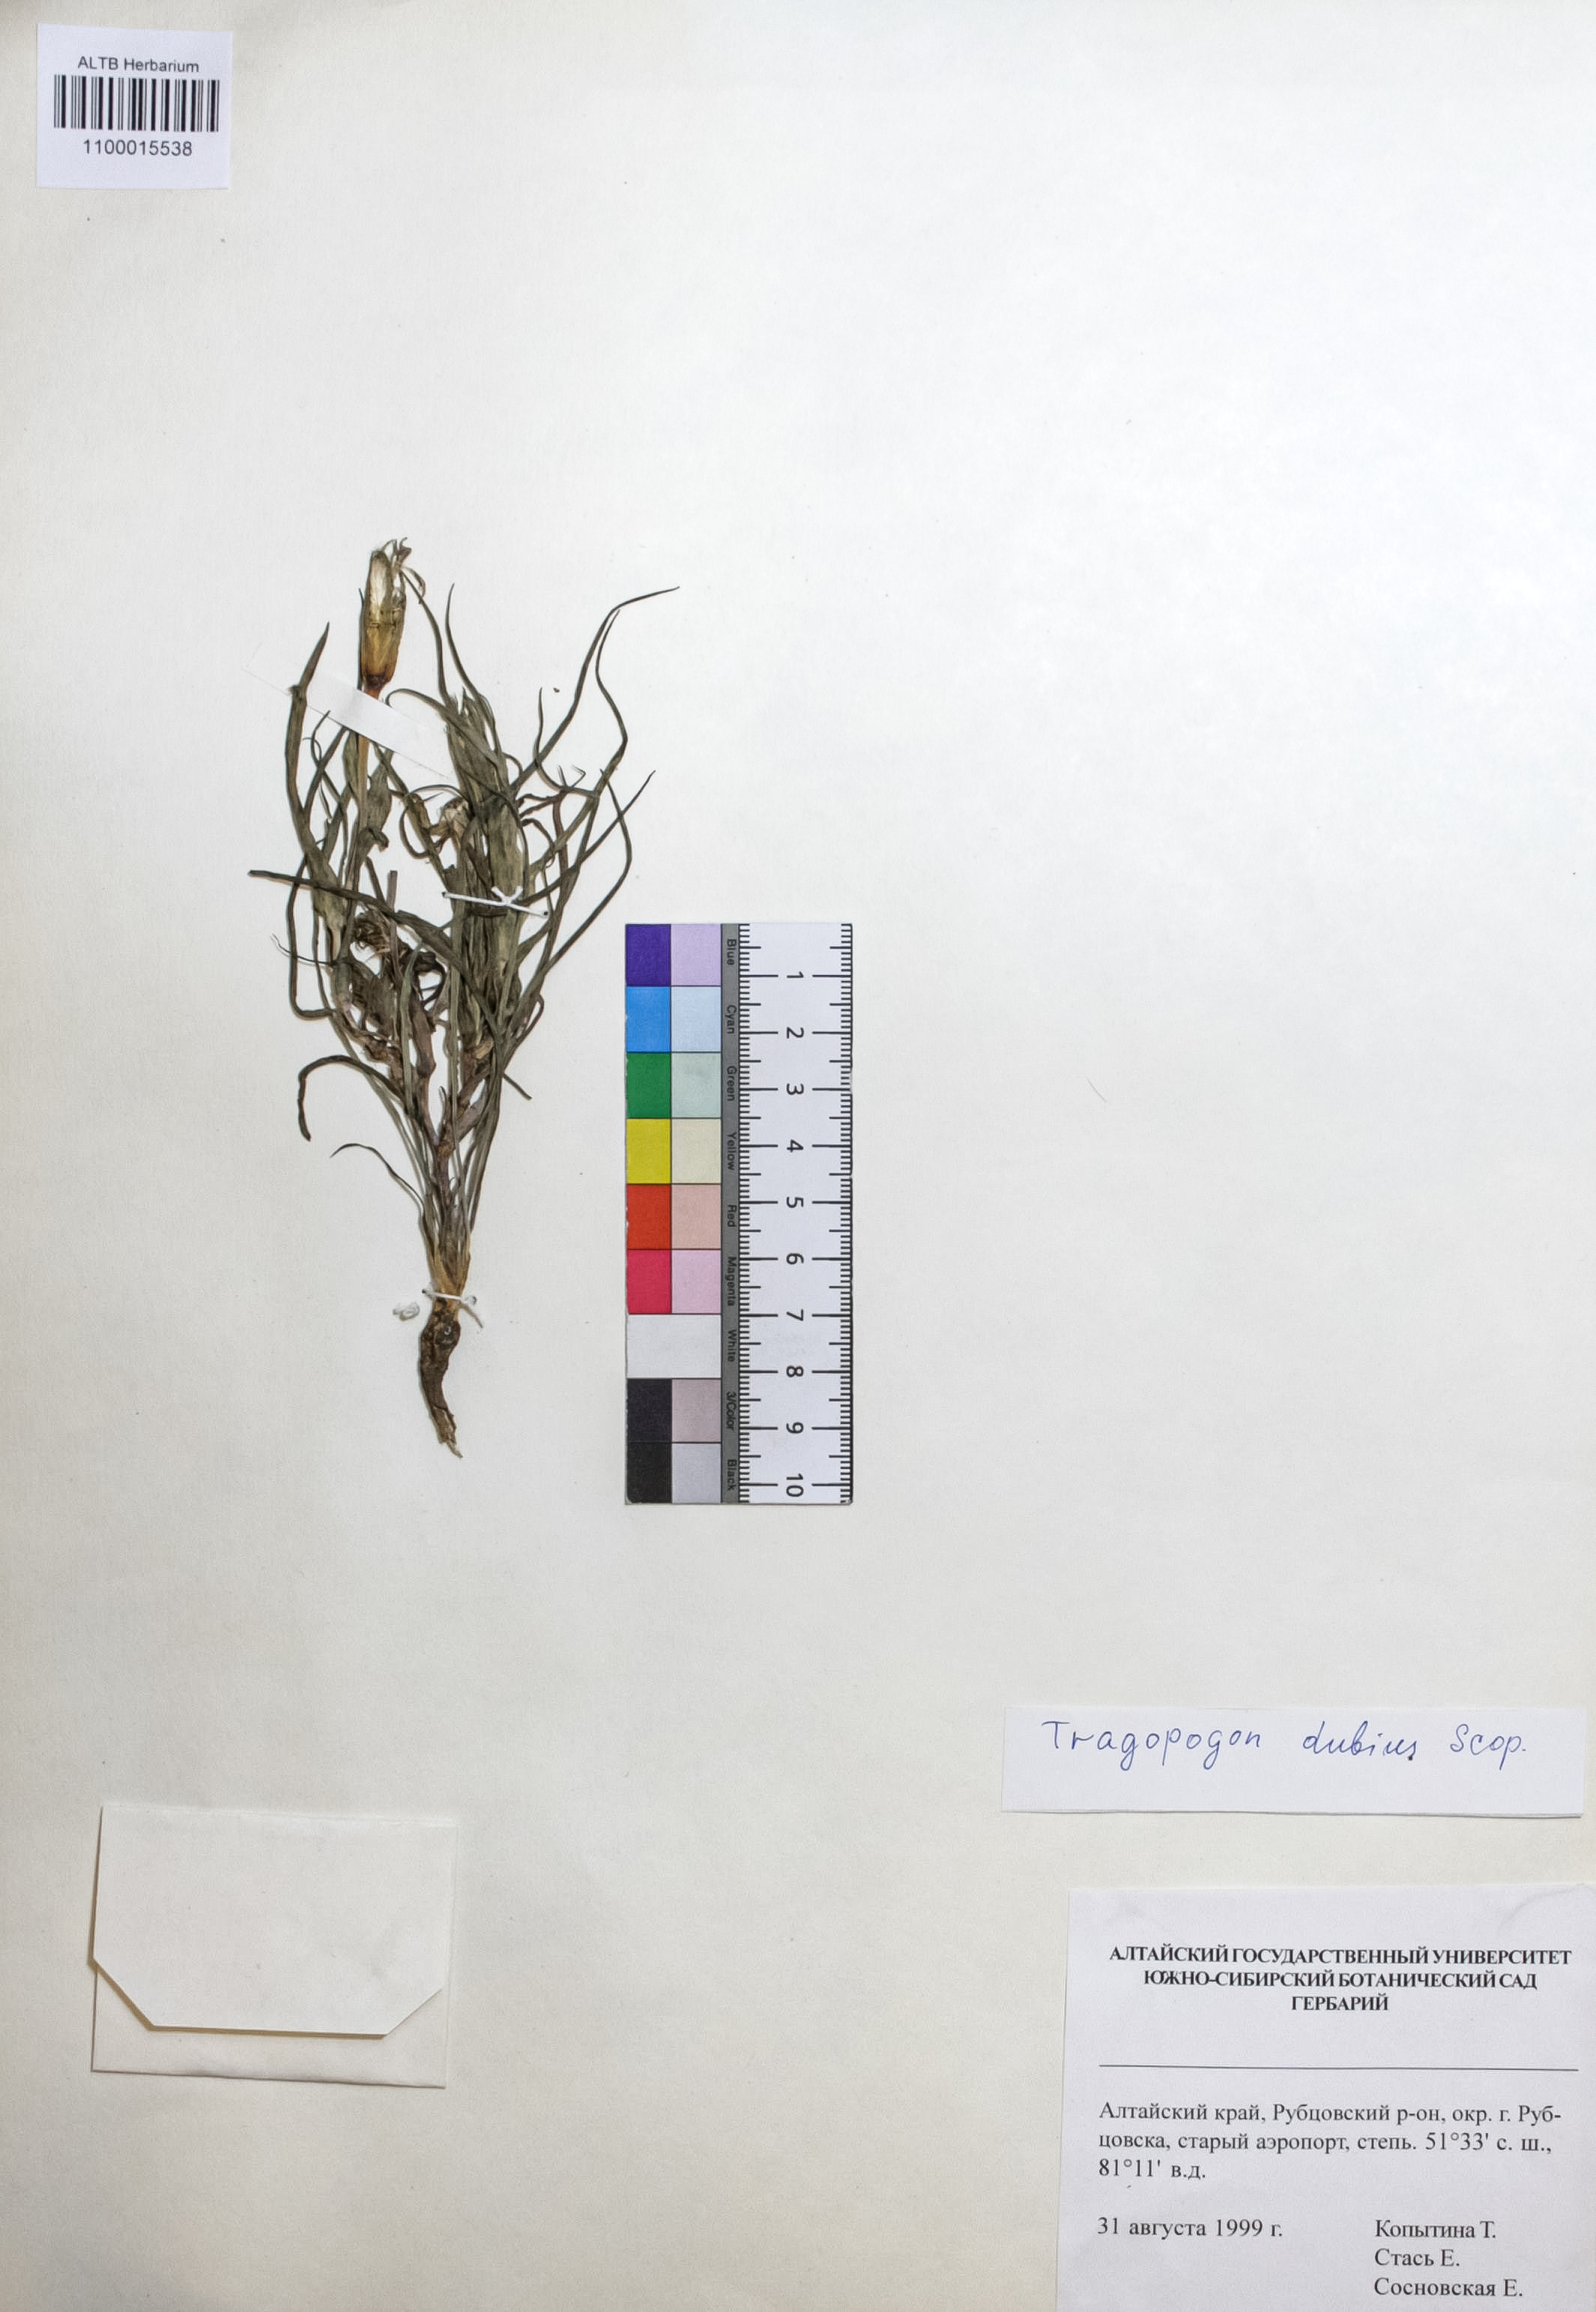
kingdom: Plantae
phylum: Tracheophyta
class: Magnoliopsida
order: Asterales
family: Asteraceae
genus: Tragopogon
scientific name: Tragopogon dubius
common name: Yellow salsify
